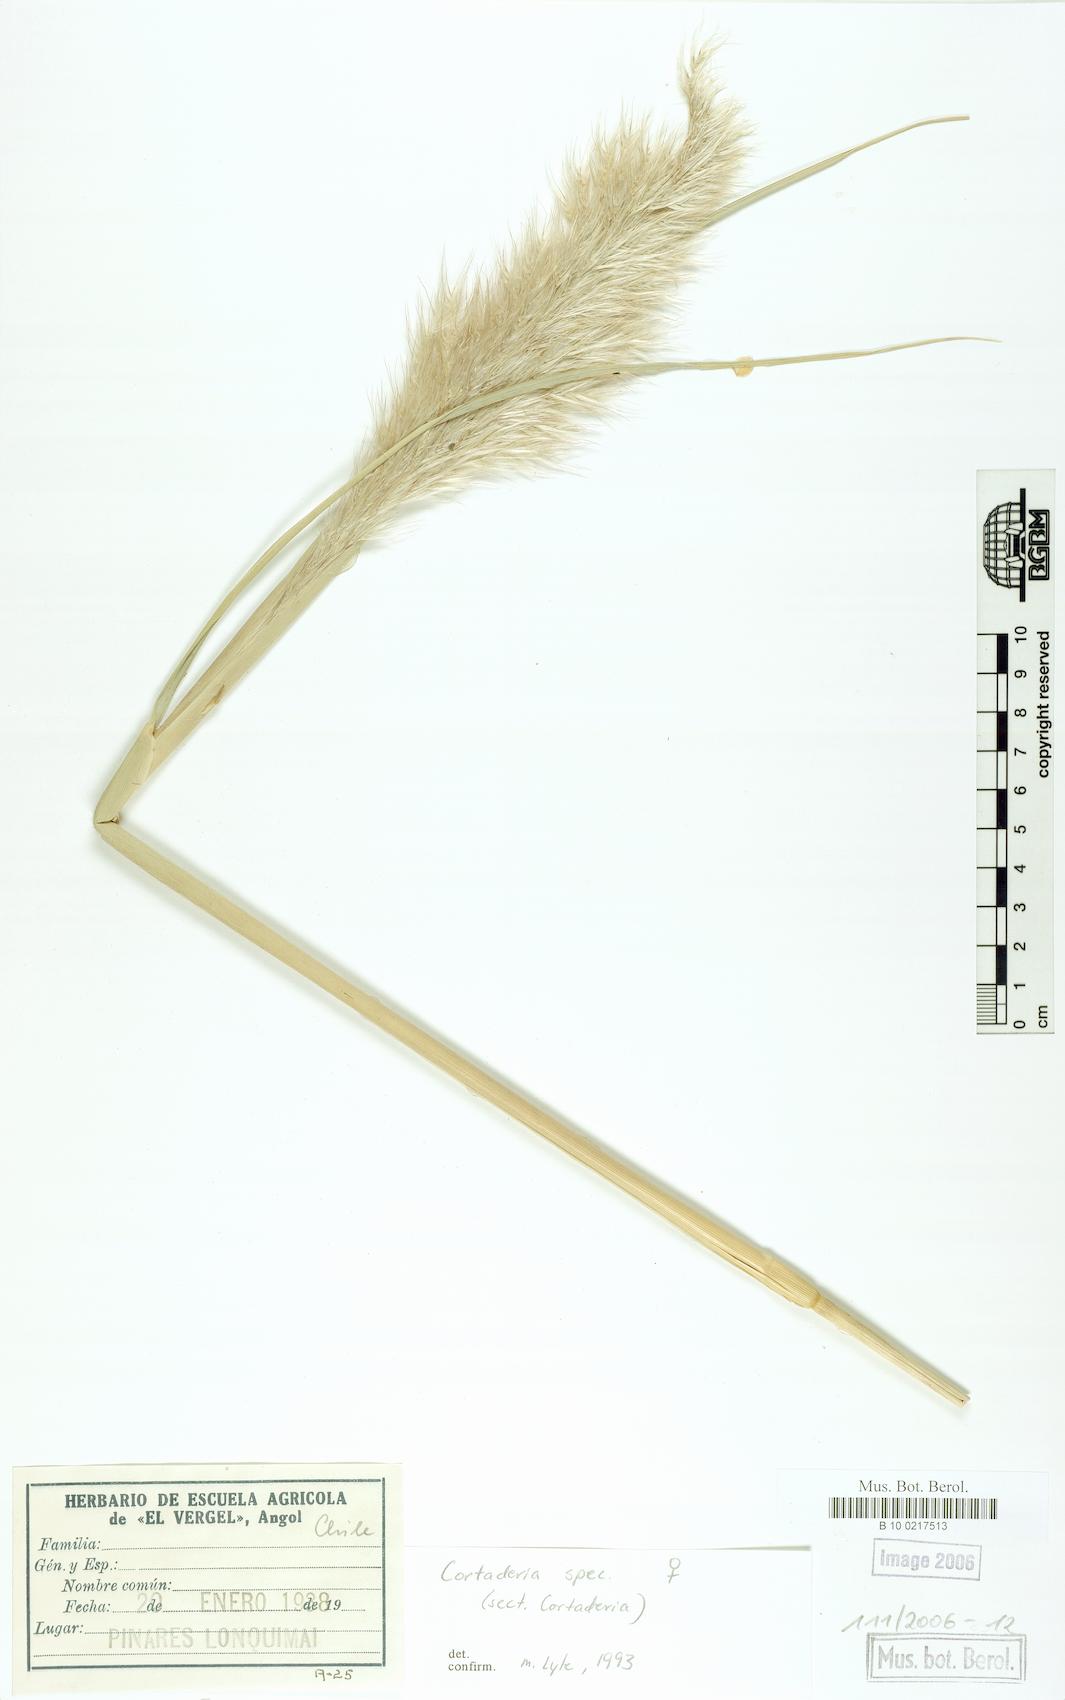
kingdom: Plantae
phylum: Tracheophyta
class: Liliopsida
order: Poales
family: Poaceae
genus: Cortaderia
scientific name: Cortaderia selloana
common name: Uruguayan pampas grass
